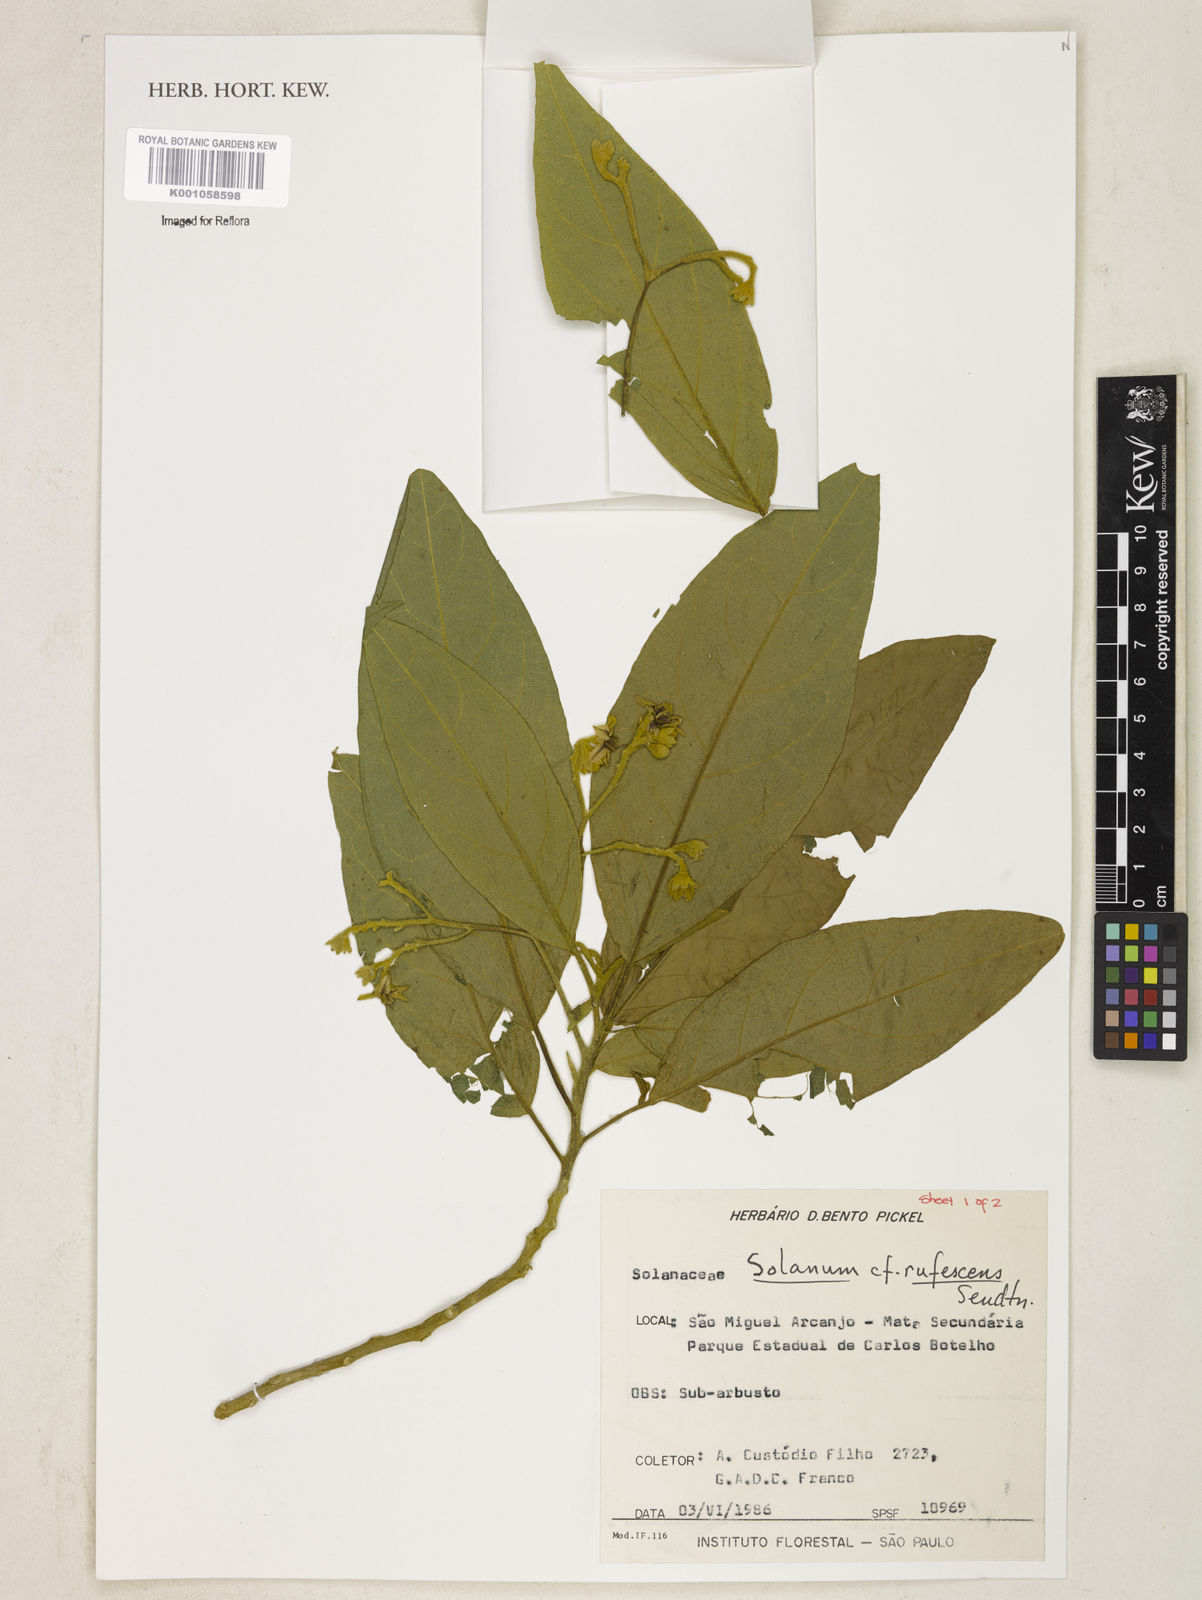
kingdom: Plantae
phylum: Tracheophyta
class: Magnoliopsida
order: Solanales
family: Solanaceae
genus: Solanum
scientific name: Solanum rufescens
